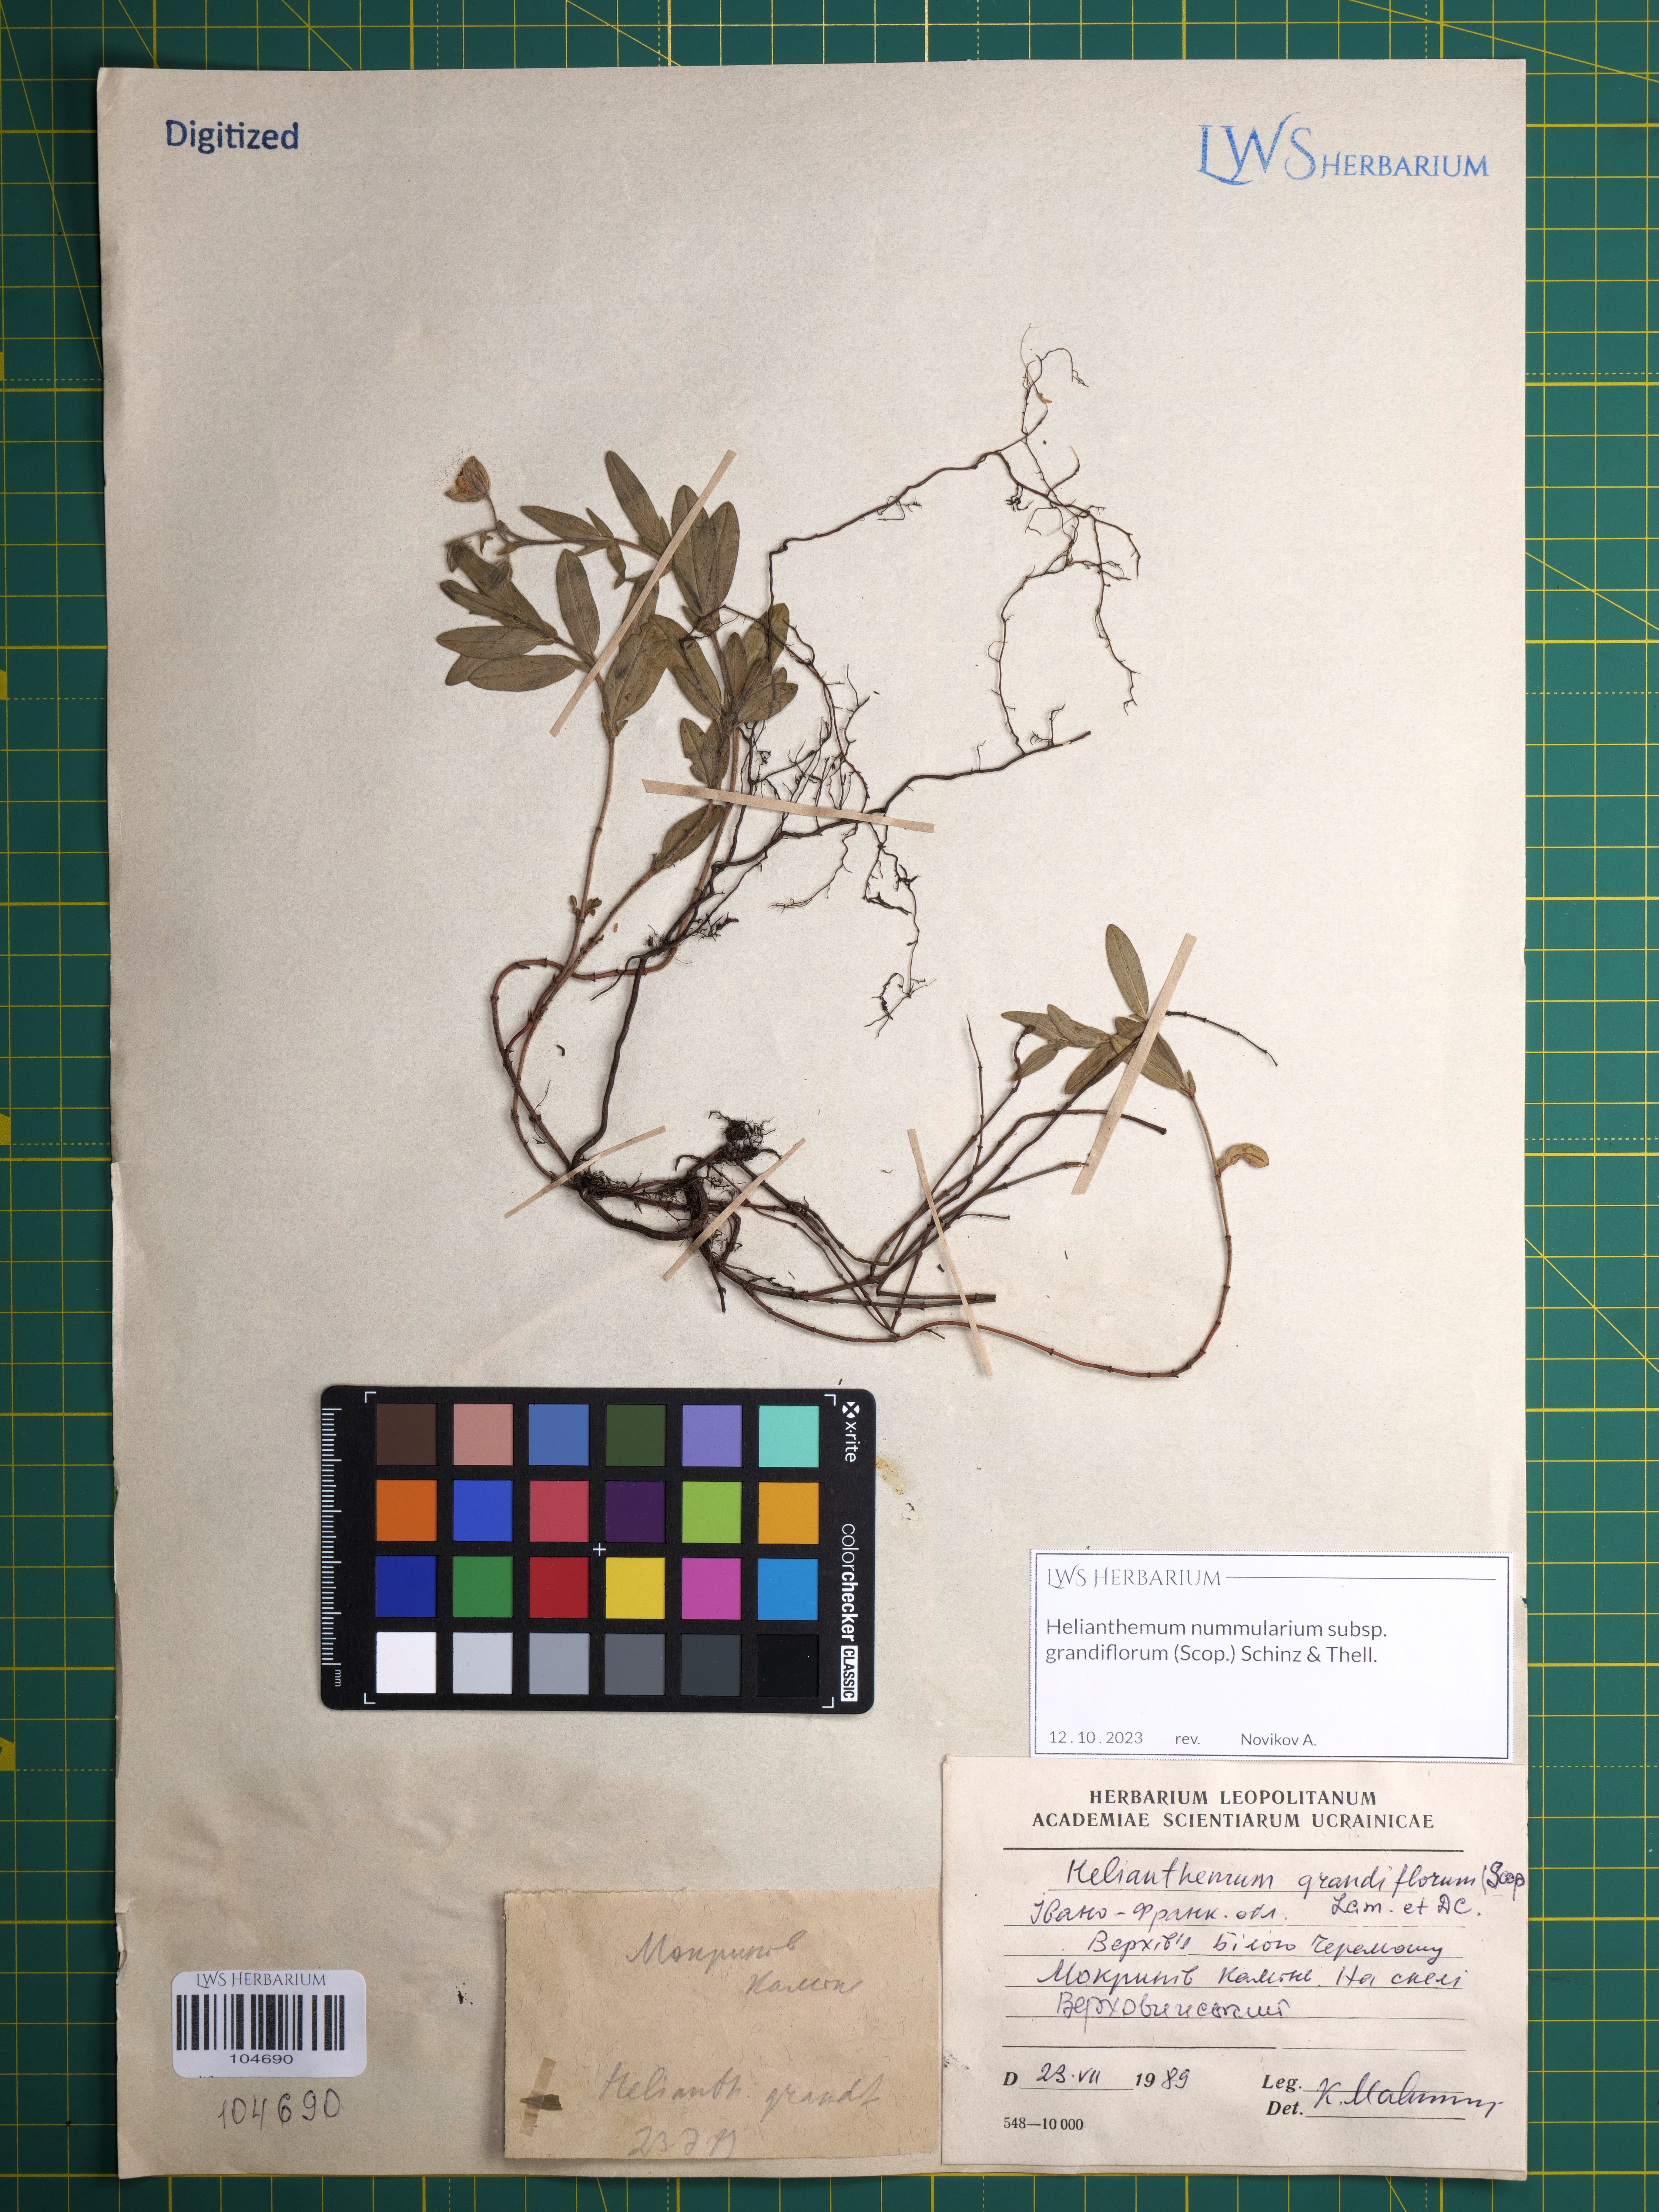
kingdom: Plantae
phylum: Tracheophyta
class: Magnoliopsida
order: Malvales
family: Cistaceae
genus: Helianthemum
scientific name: Helianthemum nummularium
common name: Common rock-rose
